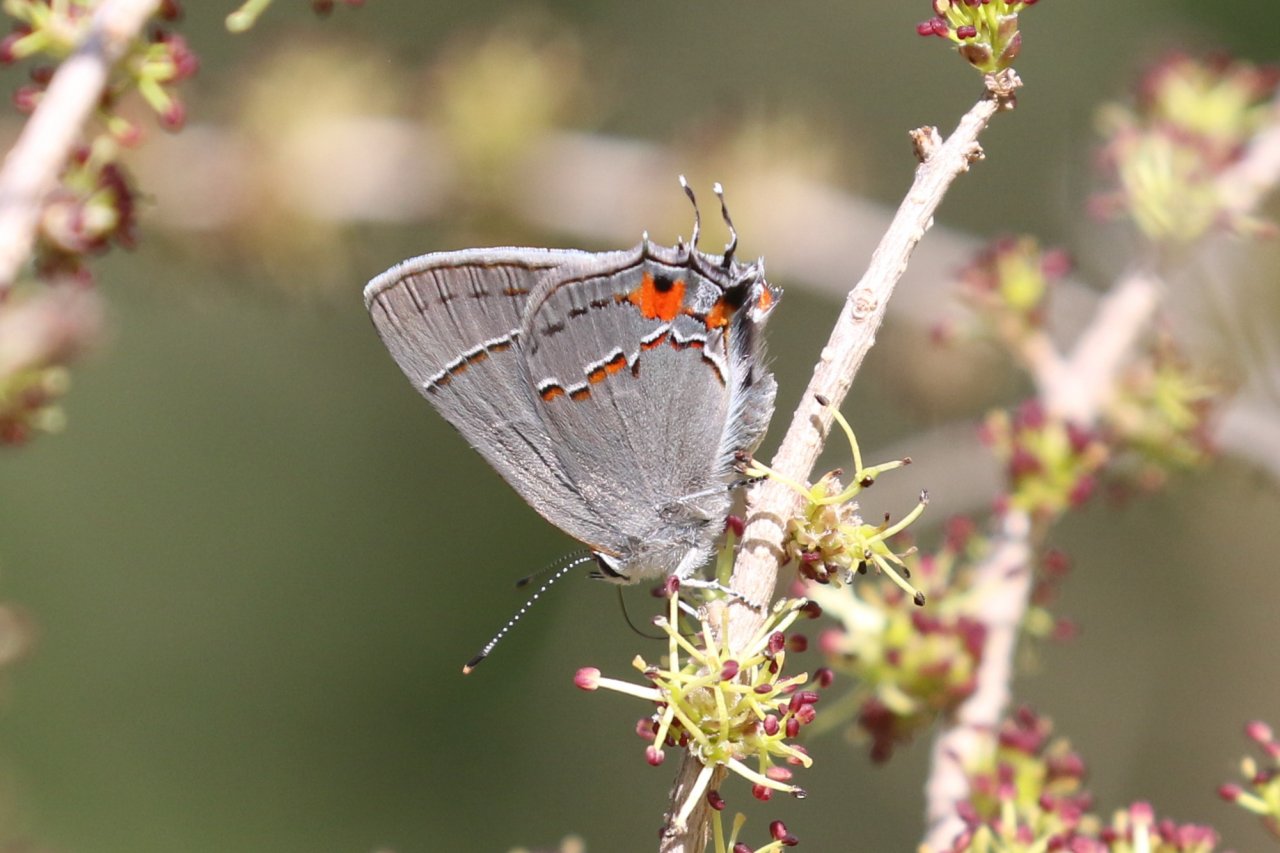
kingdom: Animalia
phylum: Arthropoda
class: Insecta
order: Lepidoptera
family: Lycaenidae
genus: Strymon
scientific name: Strymon melinus
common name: Gray Hairstreak
